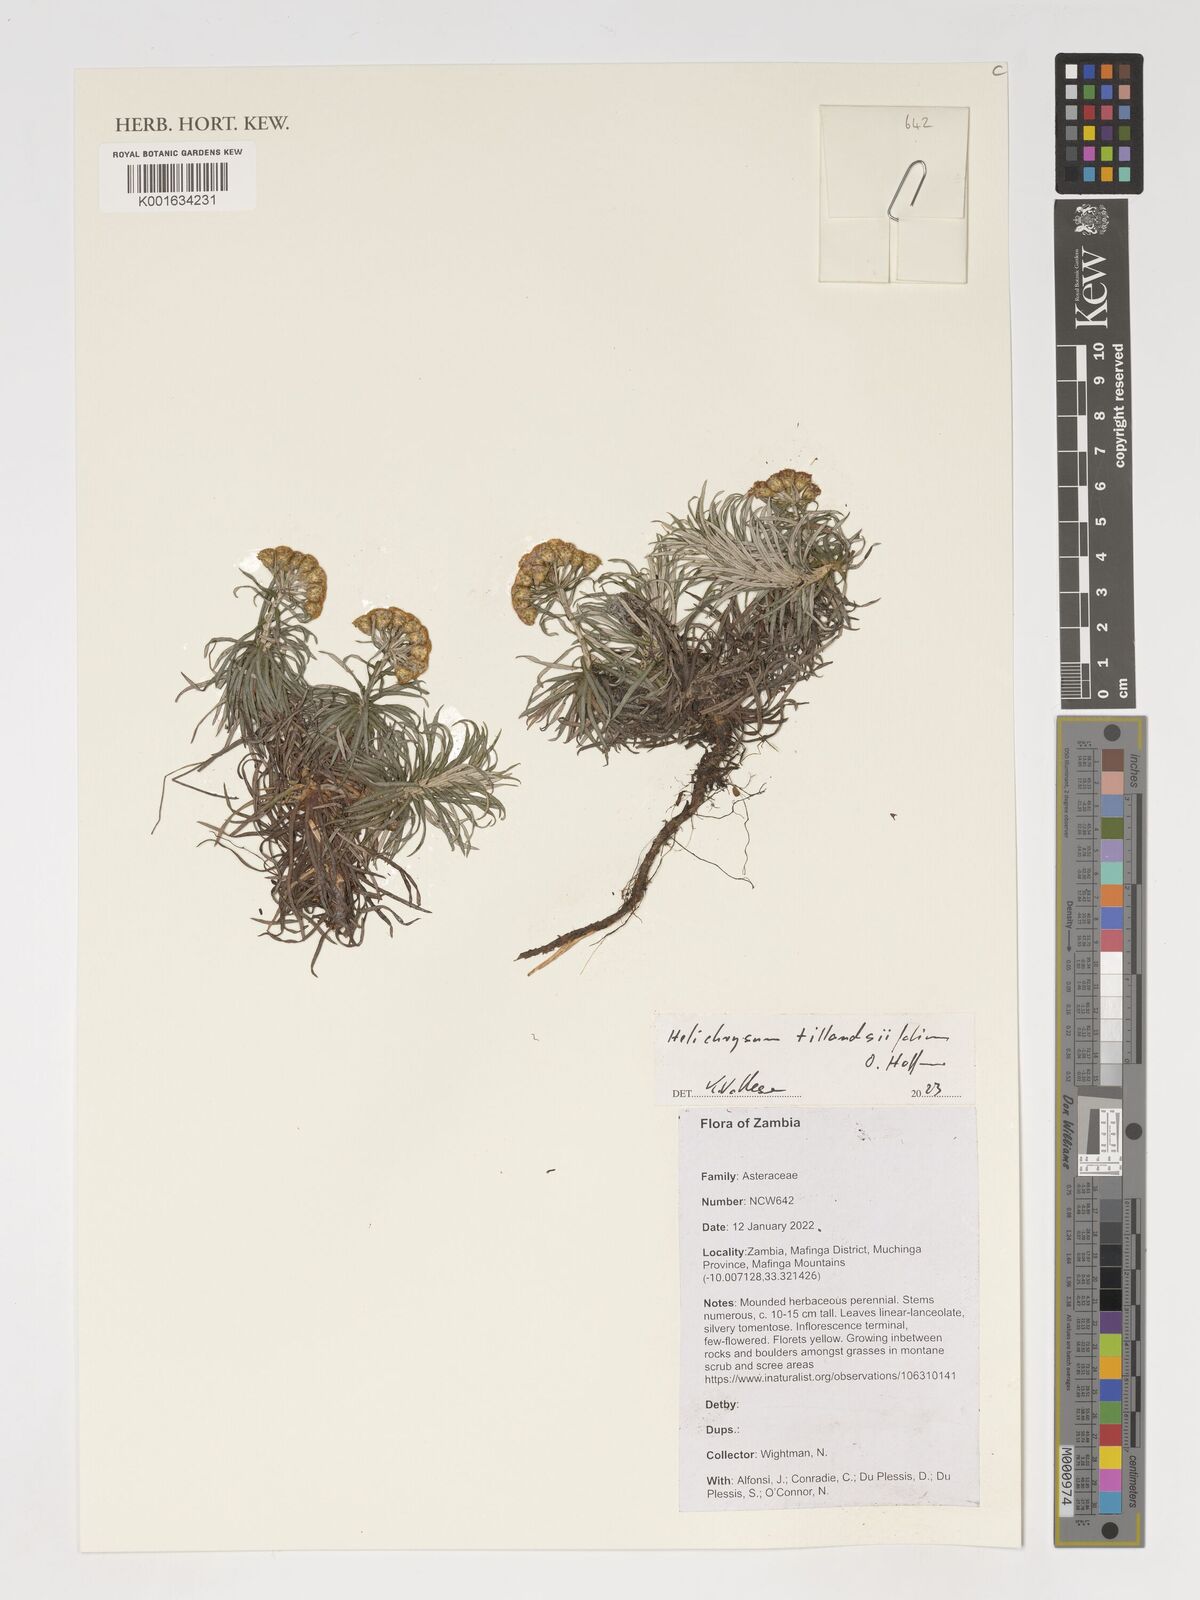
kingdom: Plantae
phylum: Tracheophyta
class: Magnoliopsida
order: Asterales
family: Asteraceae
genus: Helichrysum
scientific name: Helichrysum tillandsiifolium
